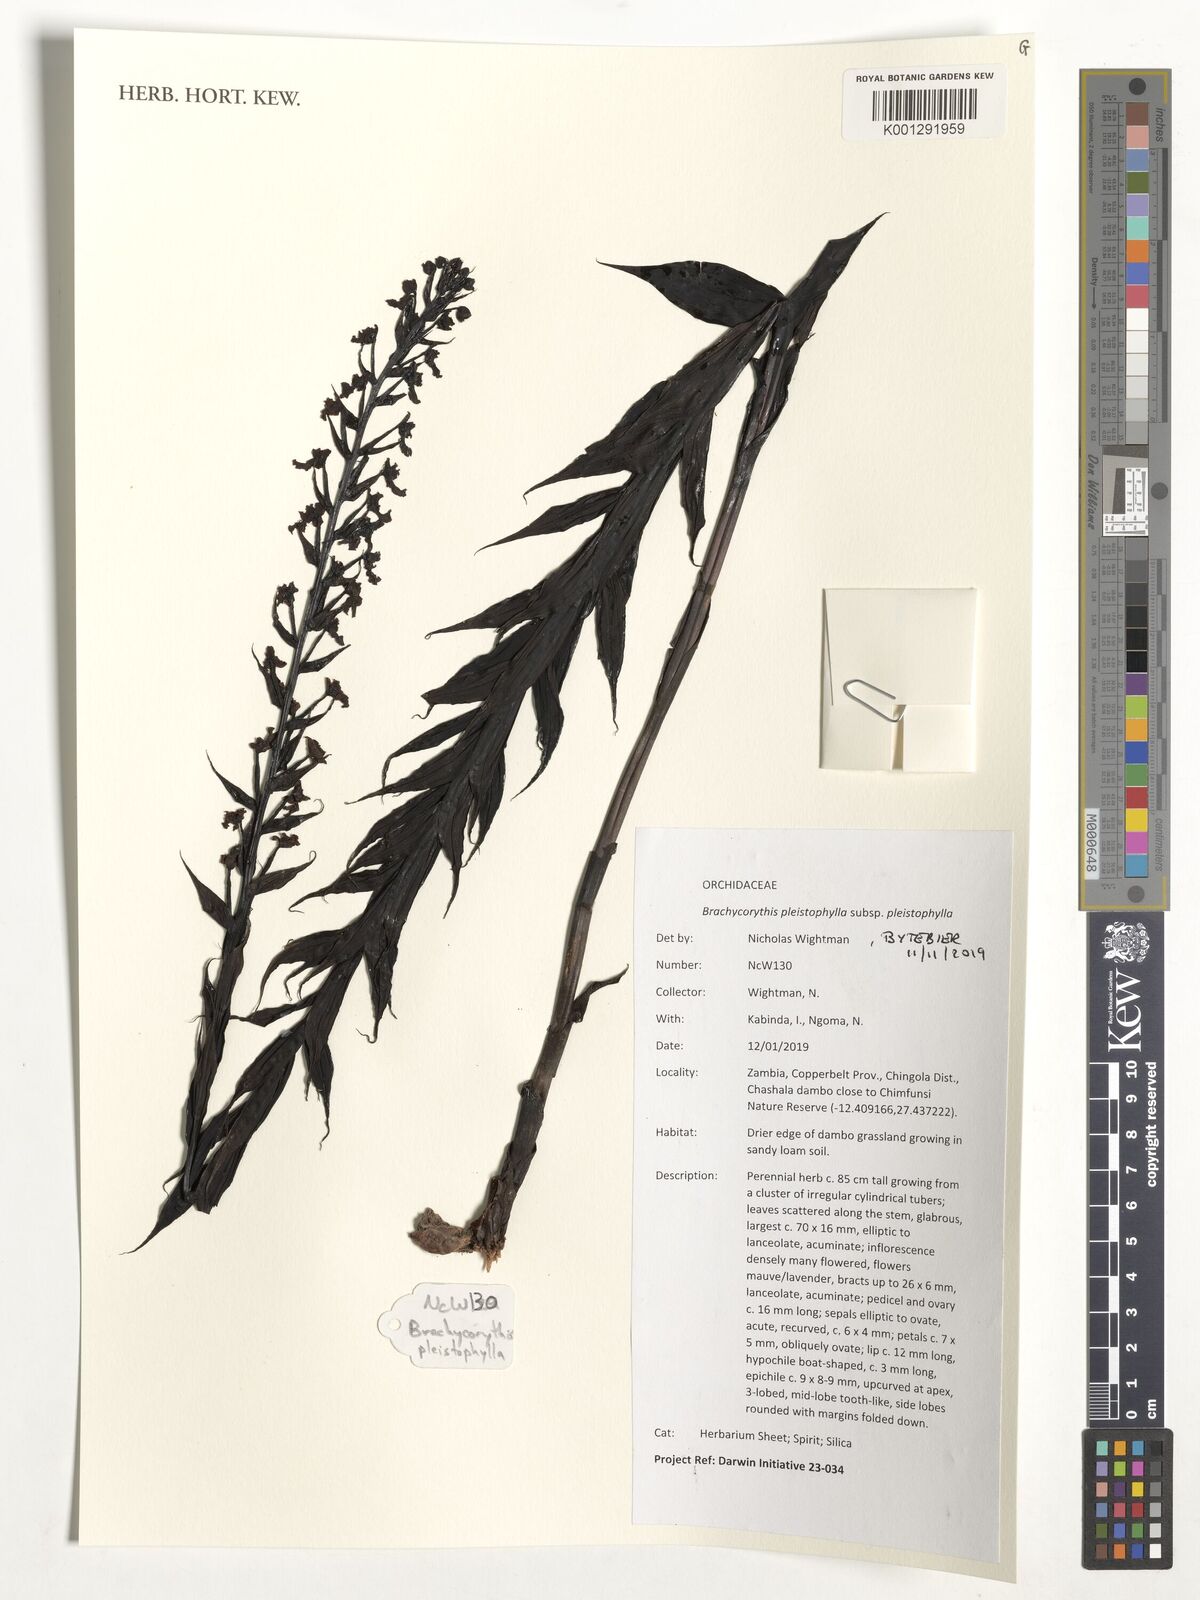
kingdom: Plantae
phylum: Tracheophyta
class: Liliopsida
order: Asparagales
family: Orchidaceae
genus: Brachycorythis
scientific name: Brachycorythis pleistophylla
